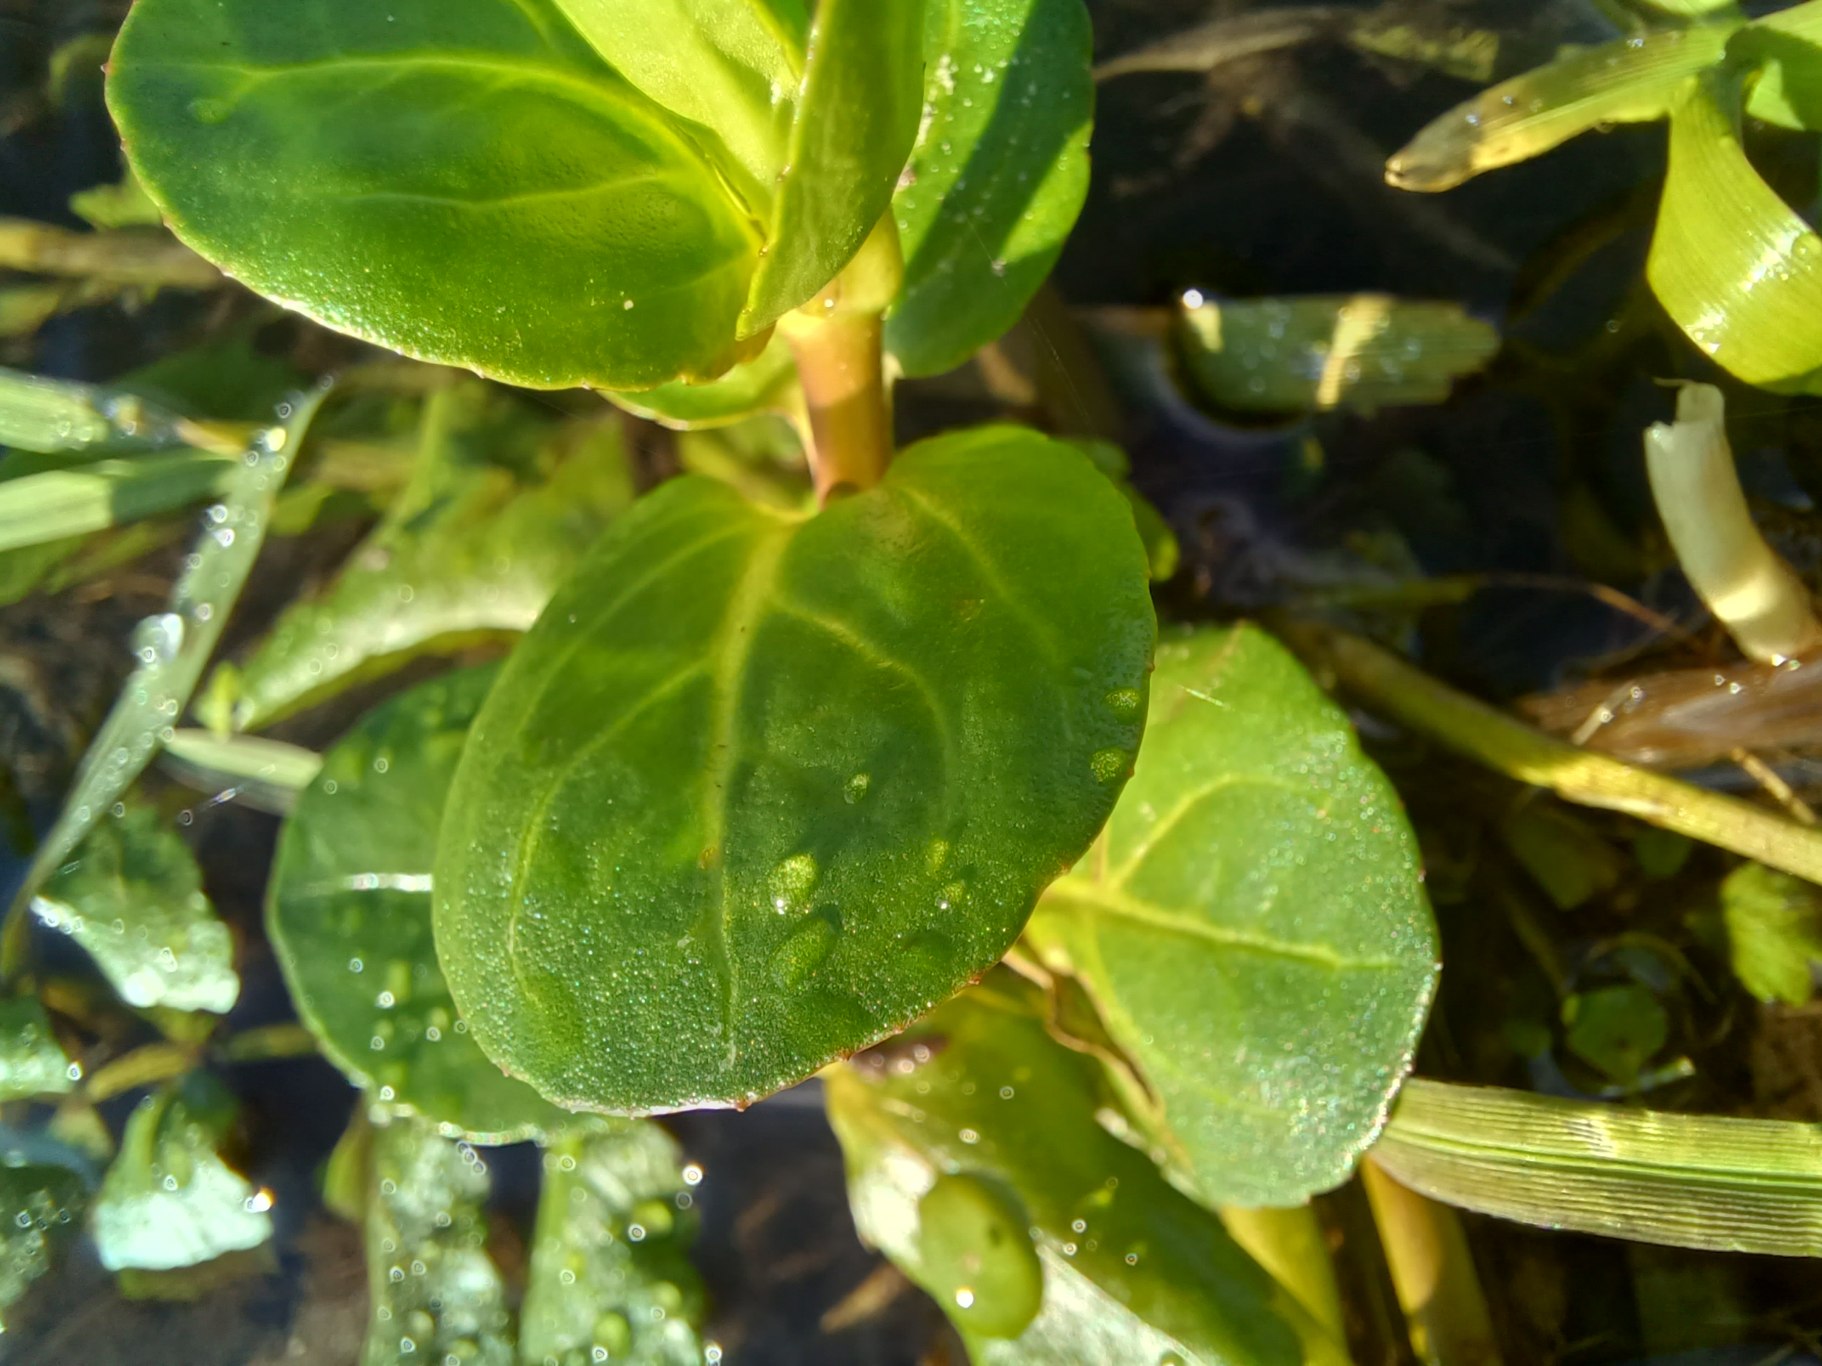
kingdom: Plantae
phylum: Tracheophyta
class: Magnoliopsida
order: Lamiales
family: Plantaginaceae
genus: Veronica
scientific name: Veronica beccabunga
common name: Tykbladet ærenpris
